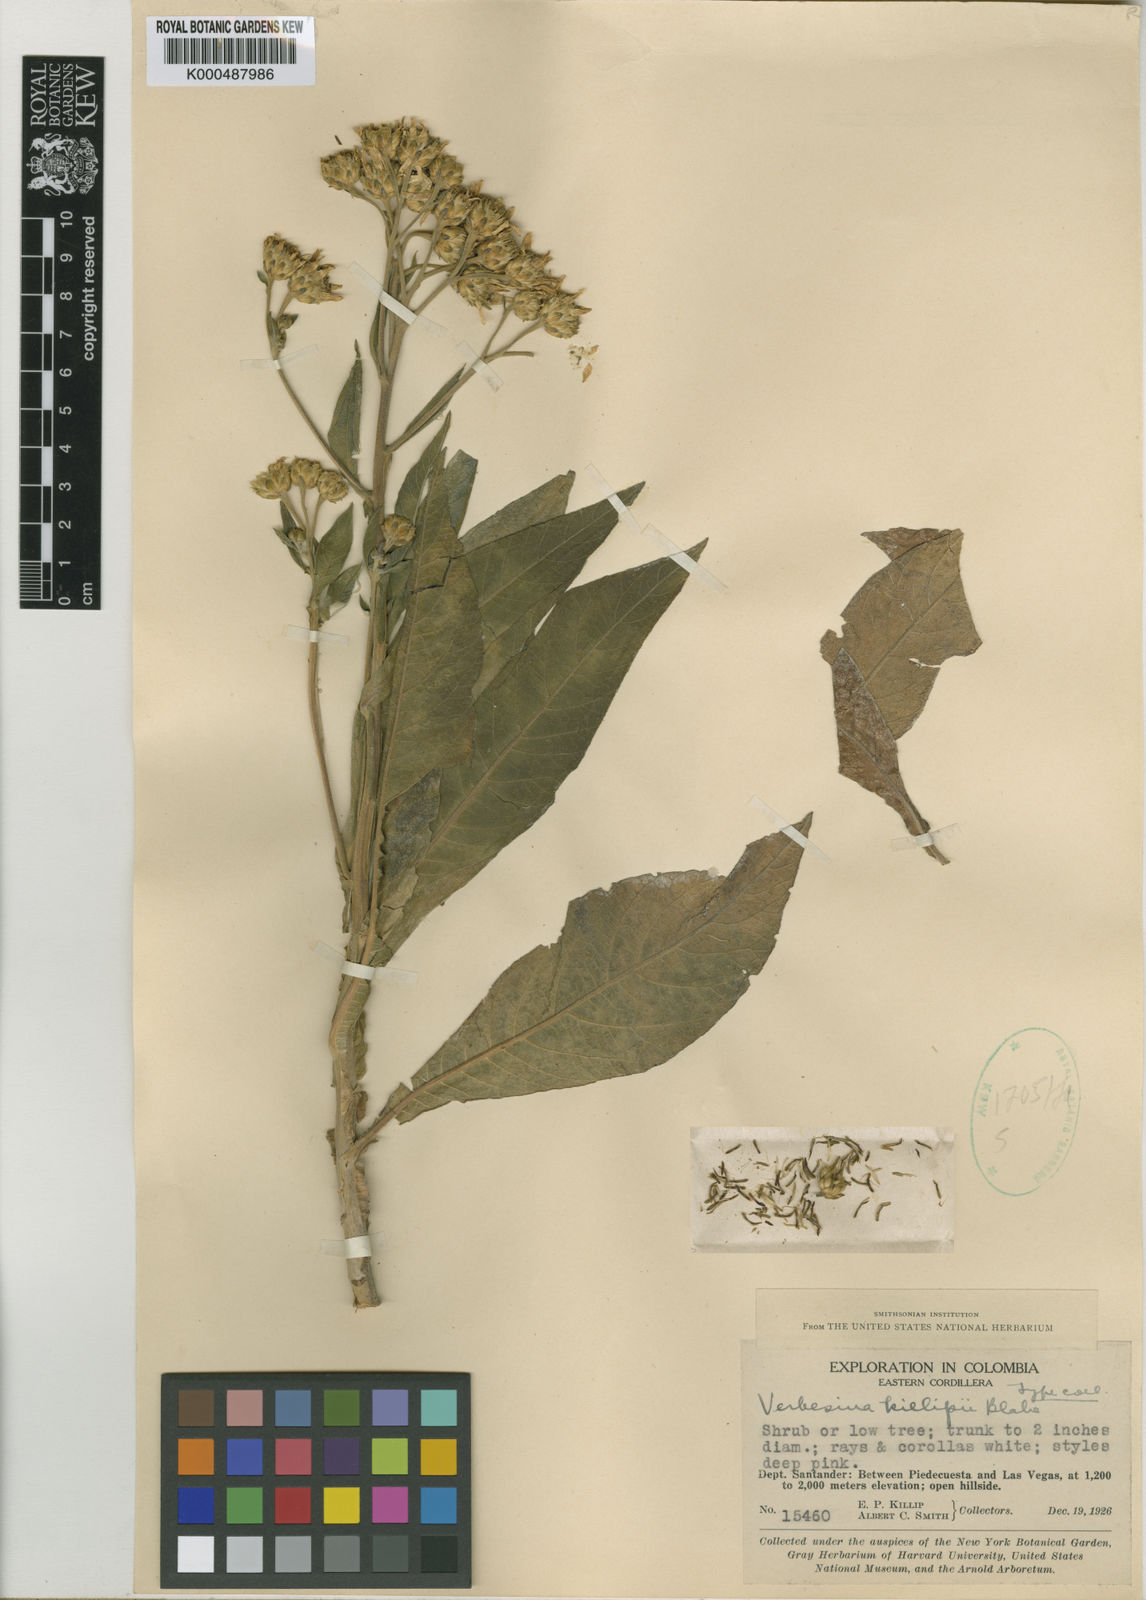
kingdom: Plantae
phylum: Tracheophyta
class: Magnoliopsida
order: Asterales
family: Asteraceae
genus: Verbesina
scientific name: Verbesina killipii
